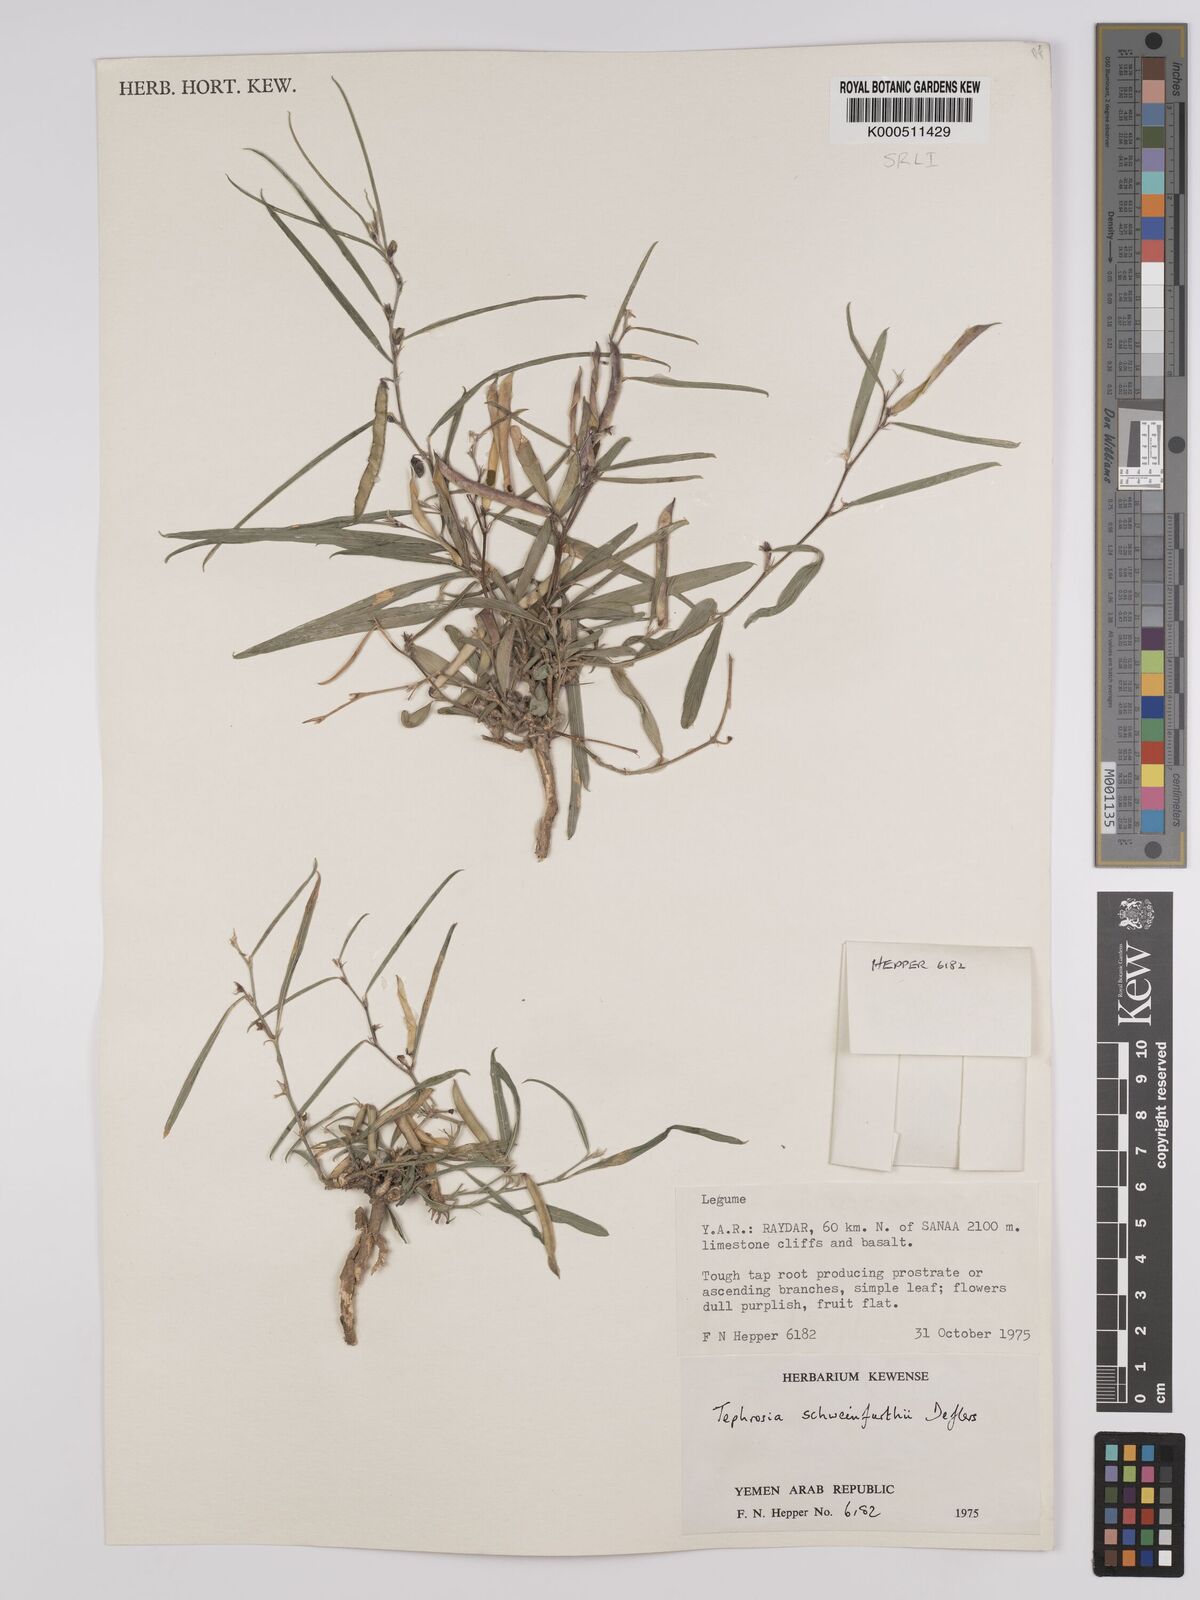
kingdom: Plantae
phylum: Tracheophyta
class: Magnoliopsida
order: Fabales
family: Fabaceae
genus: Tephrosia
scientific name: Tephrosia heterophylla
